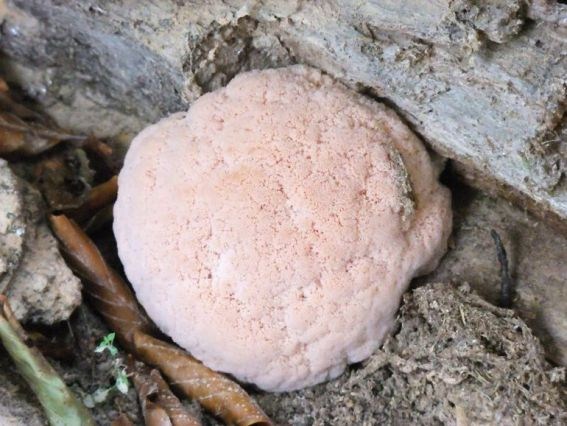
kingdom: Fungi
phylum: Basidiomycota
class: Agaricomycetes
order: Russulales
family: Hericiaceae
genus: Hericium
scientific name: Hericium erinaceus
